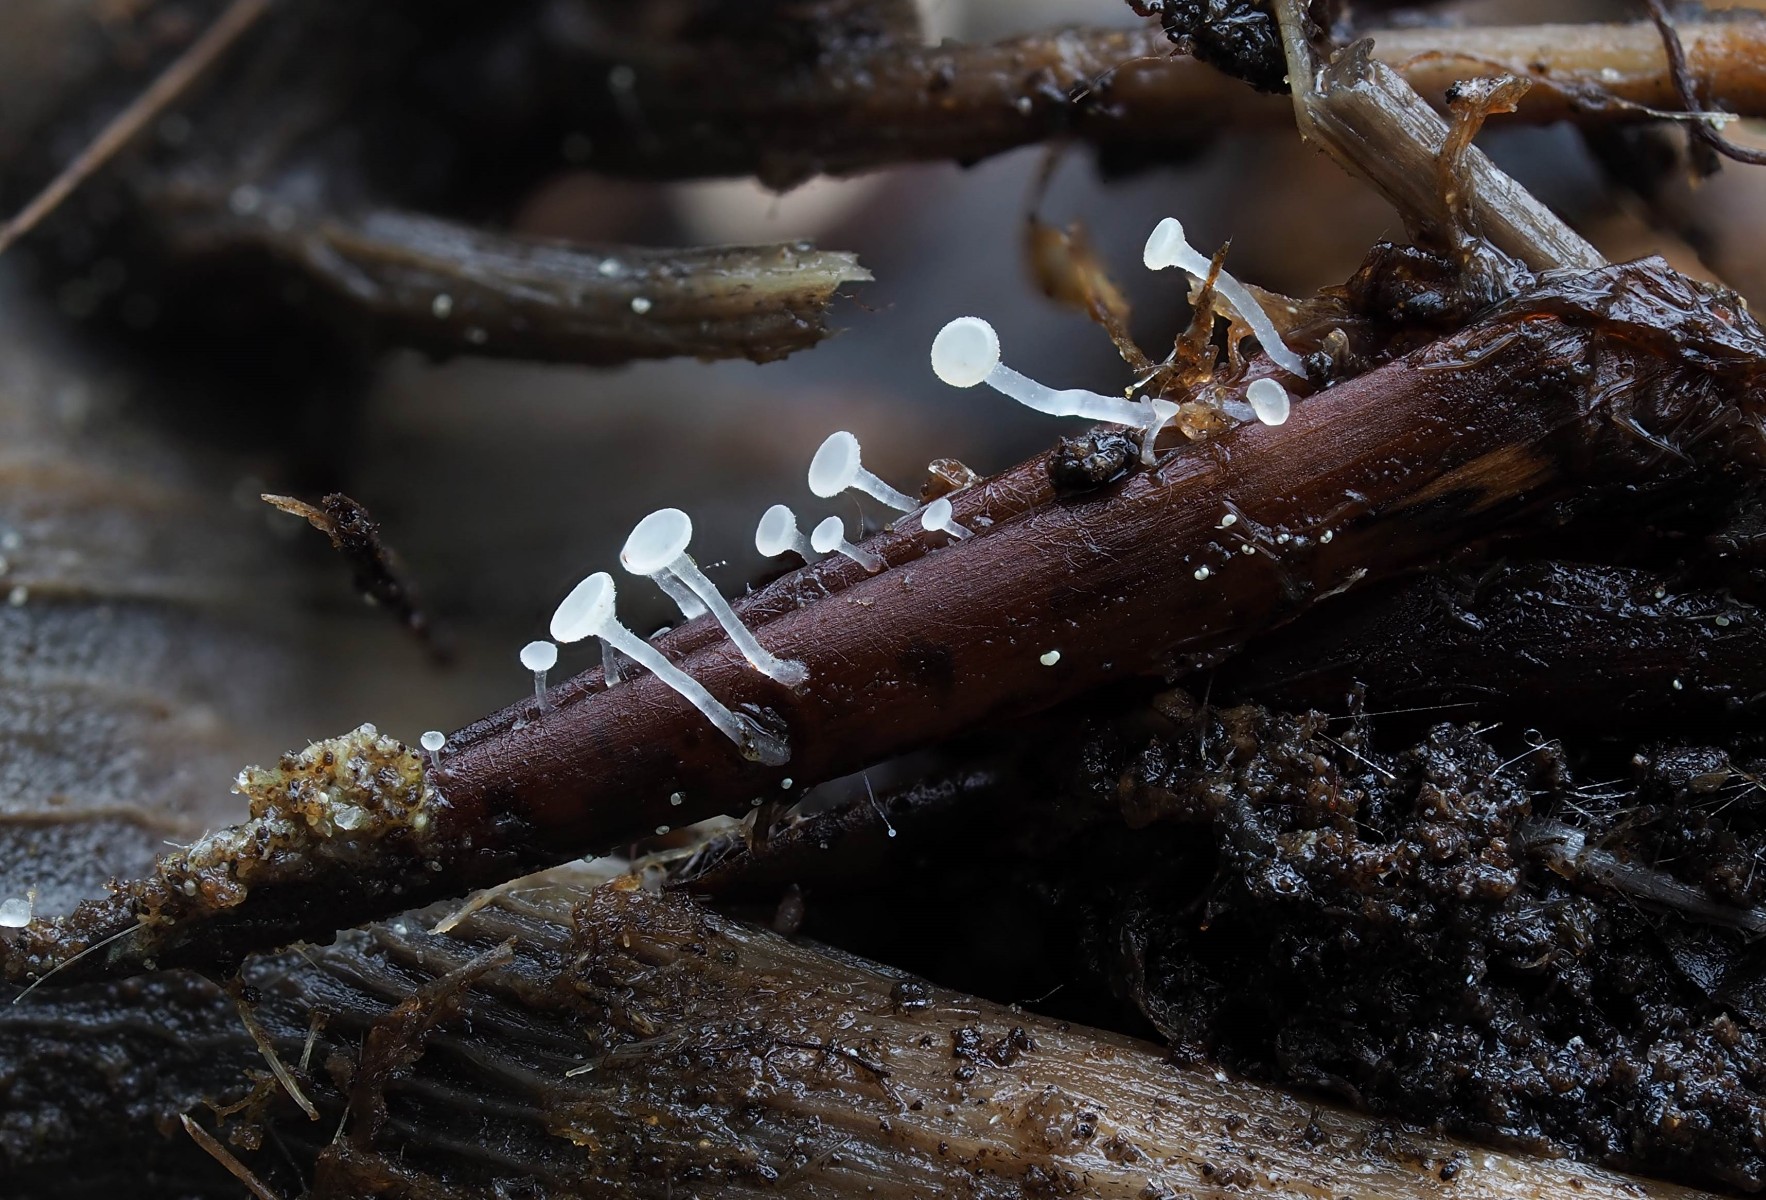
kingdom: Fungi
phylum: Ascomycota
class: Leotiomycetes
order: Helotiales
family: Pezizellaceae
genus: Pezizella
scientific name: Pezizella fagi
